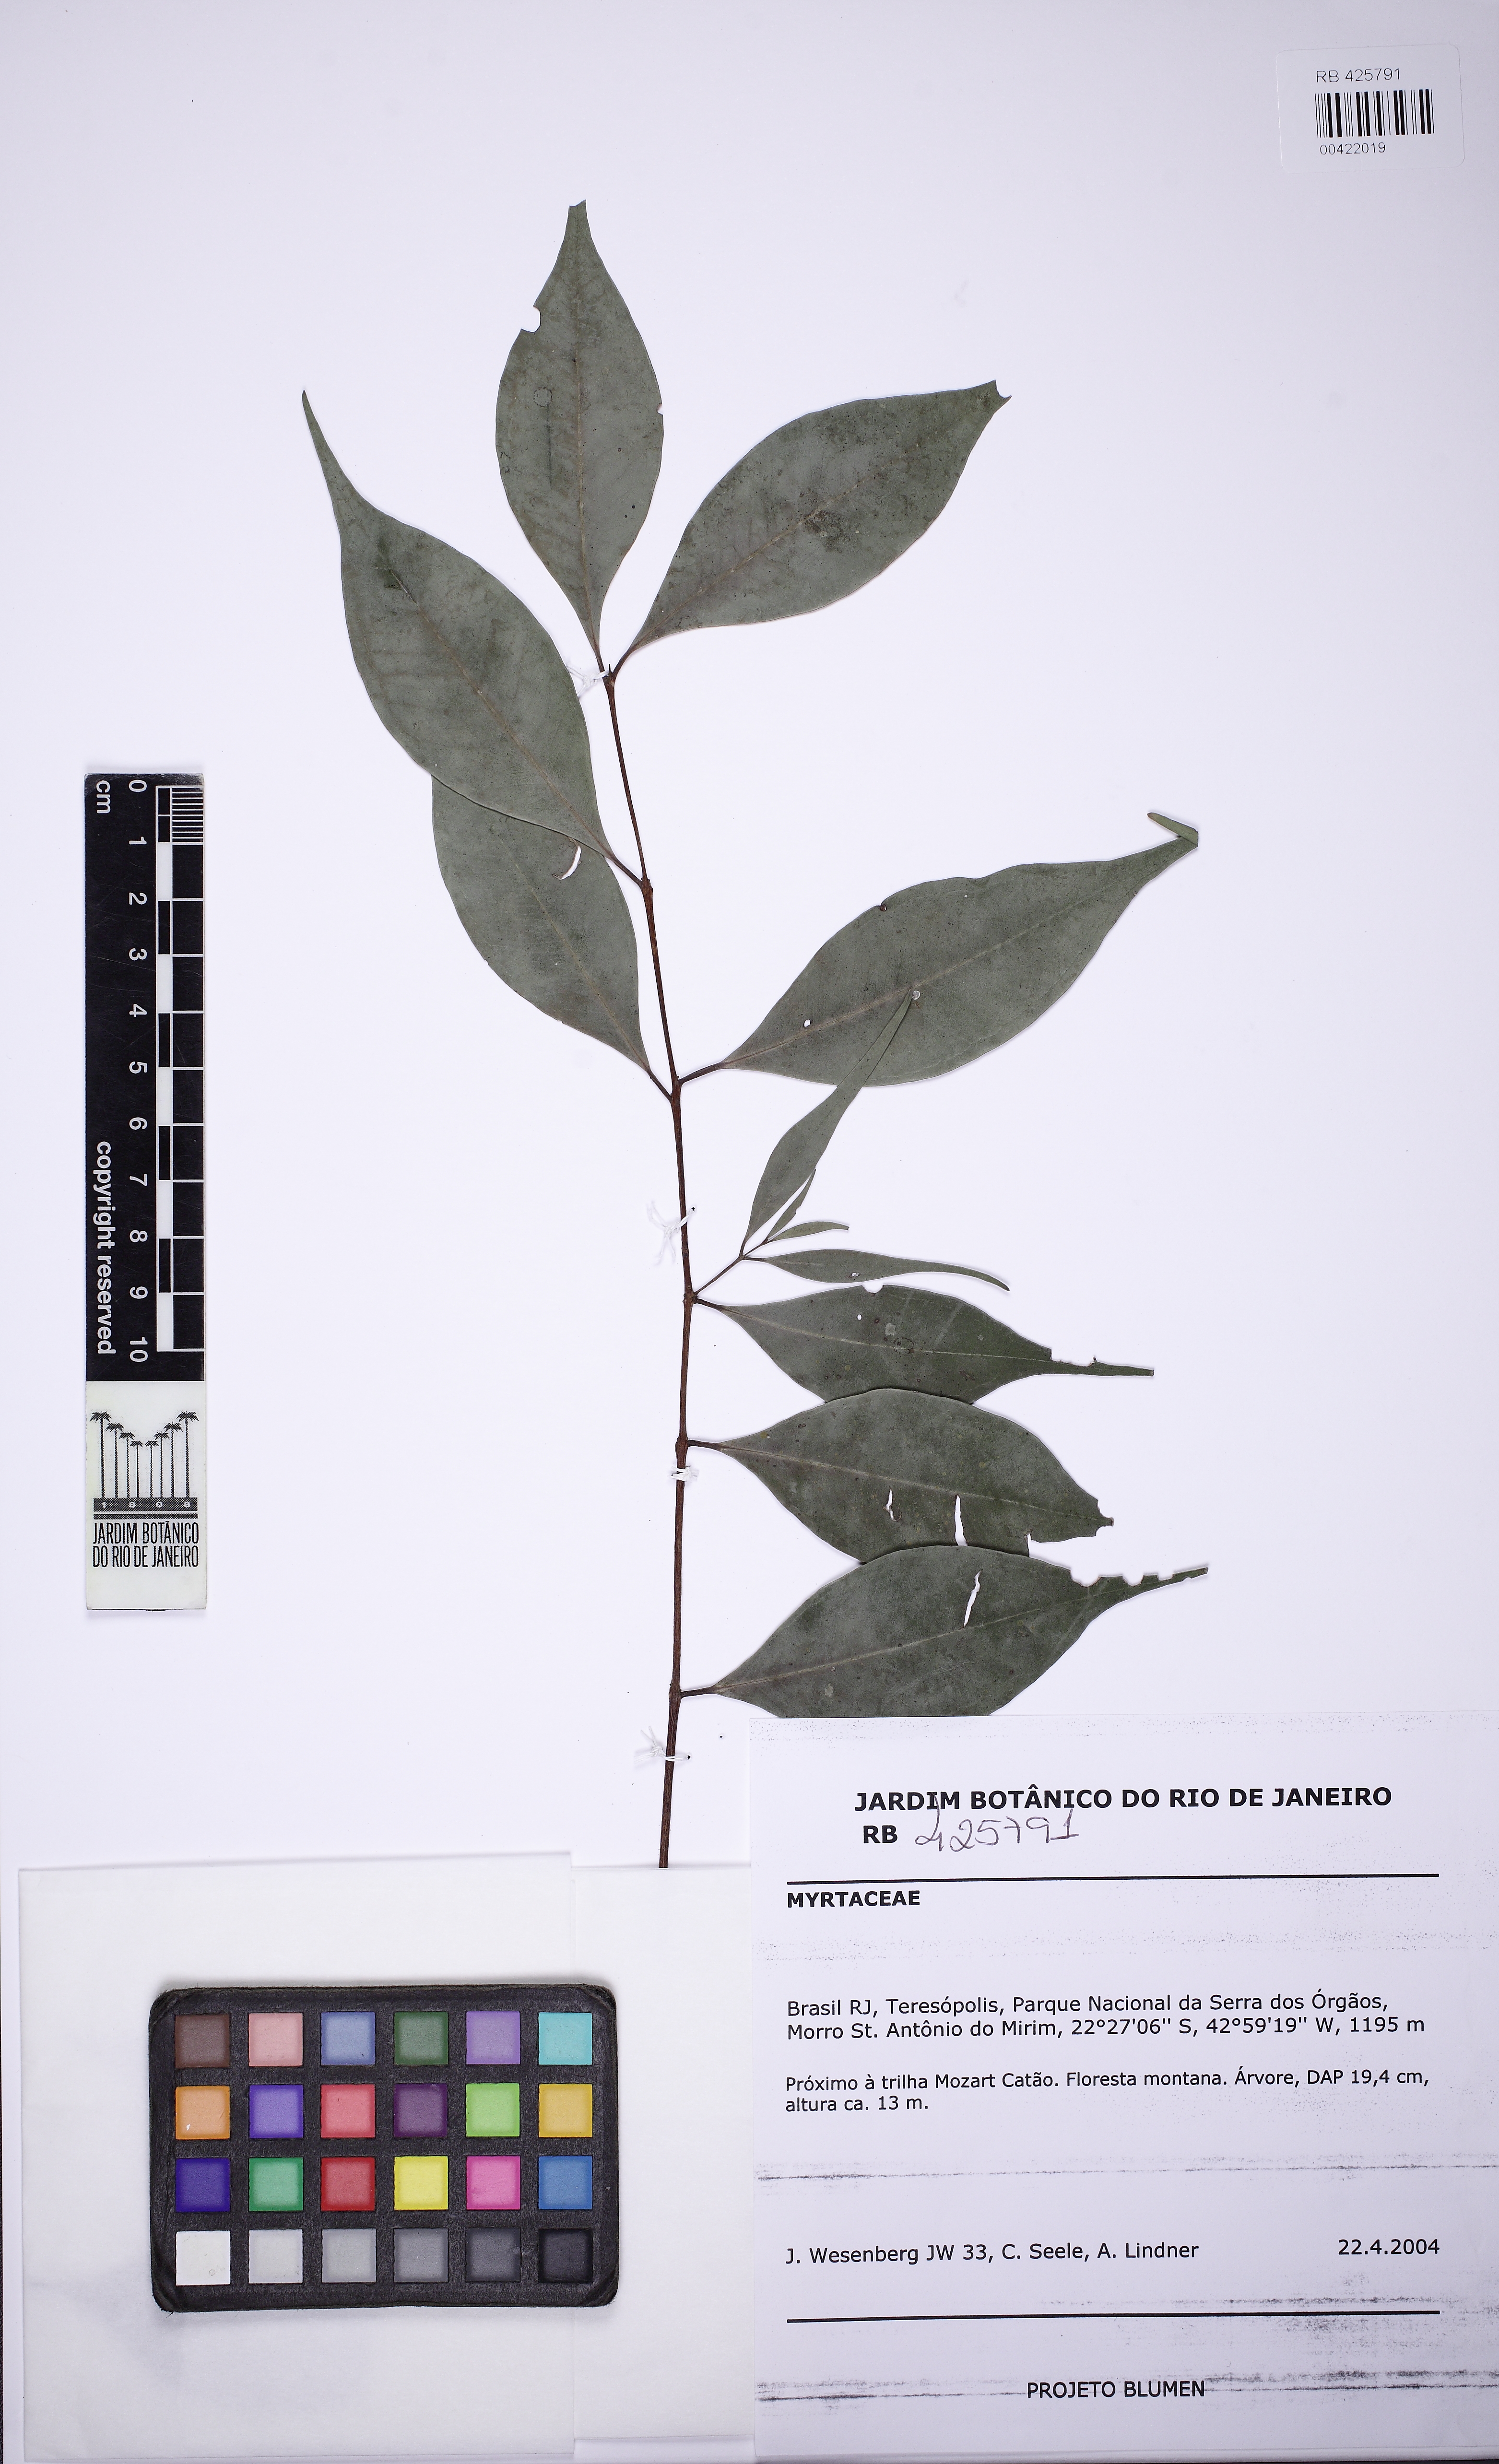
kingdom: Plantae
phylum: Tracheophyta
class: Magnoliopsida
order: Myrtales
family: Myrtaceae
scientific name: Myrtaceae
